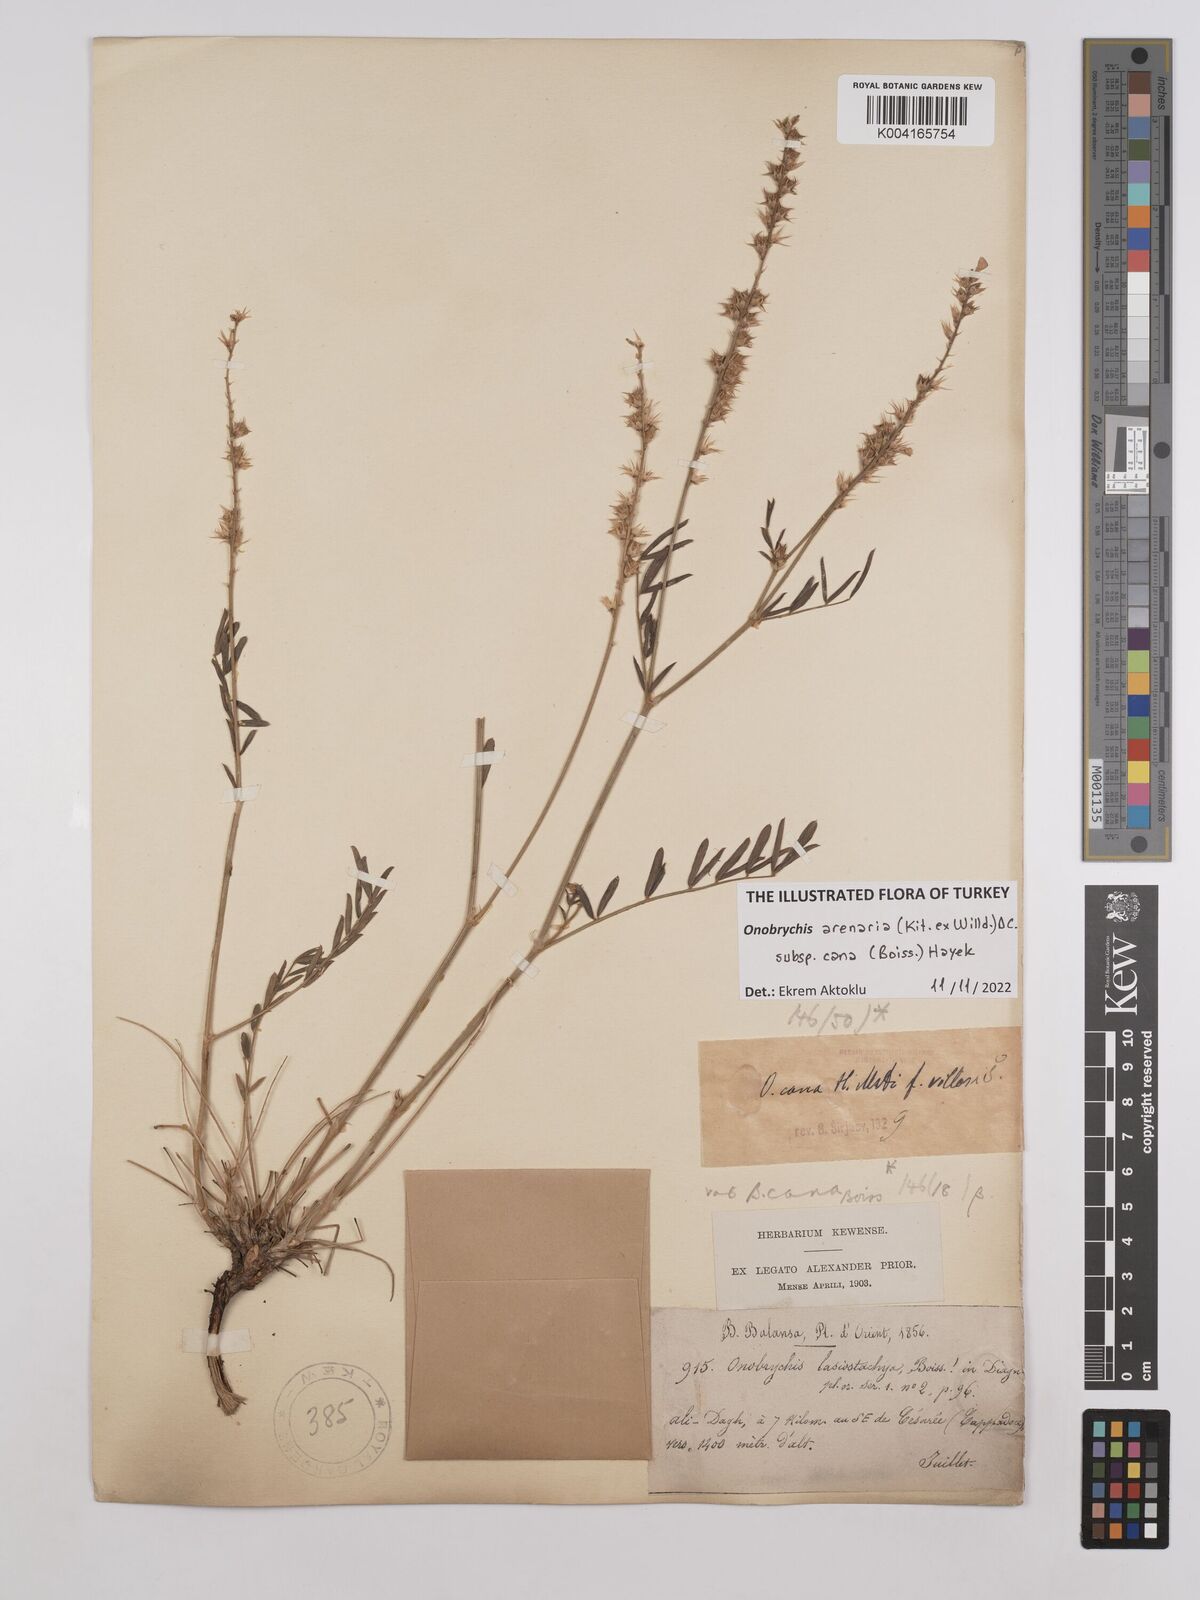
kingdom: Plantae
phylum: Tracheophyta
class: Magnoliopsida
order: Fabales
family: Fabaceae
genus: Onobrychis
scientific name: Onobrychis arenaria
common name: Sand esparcet
